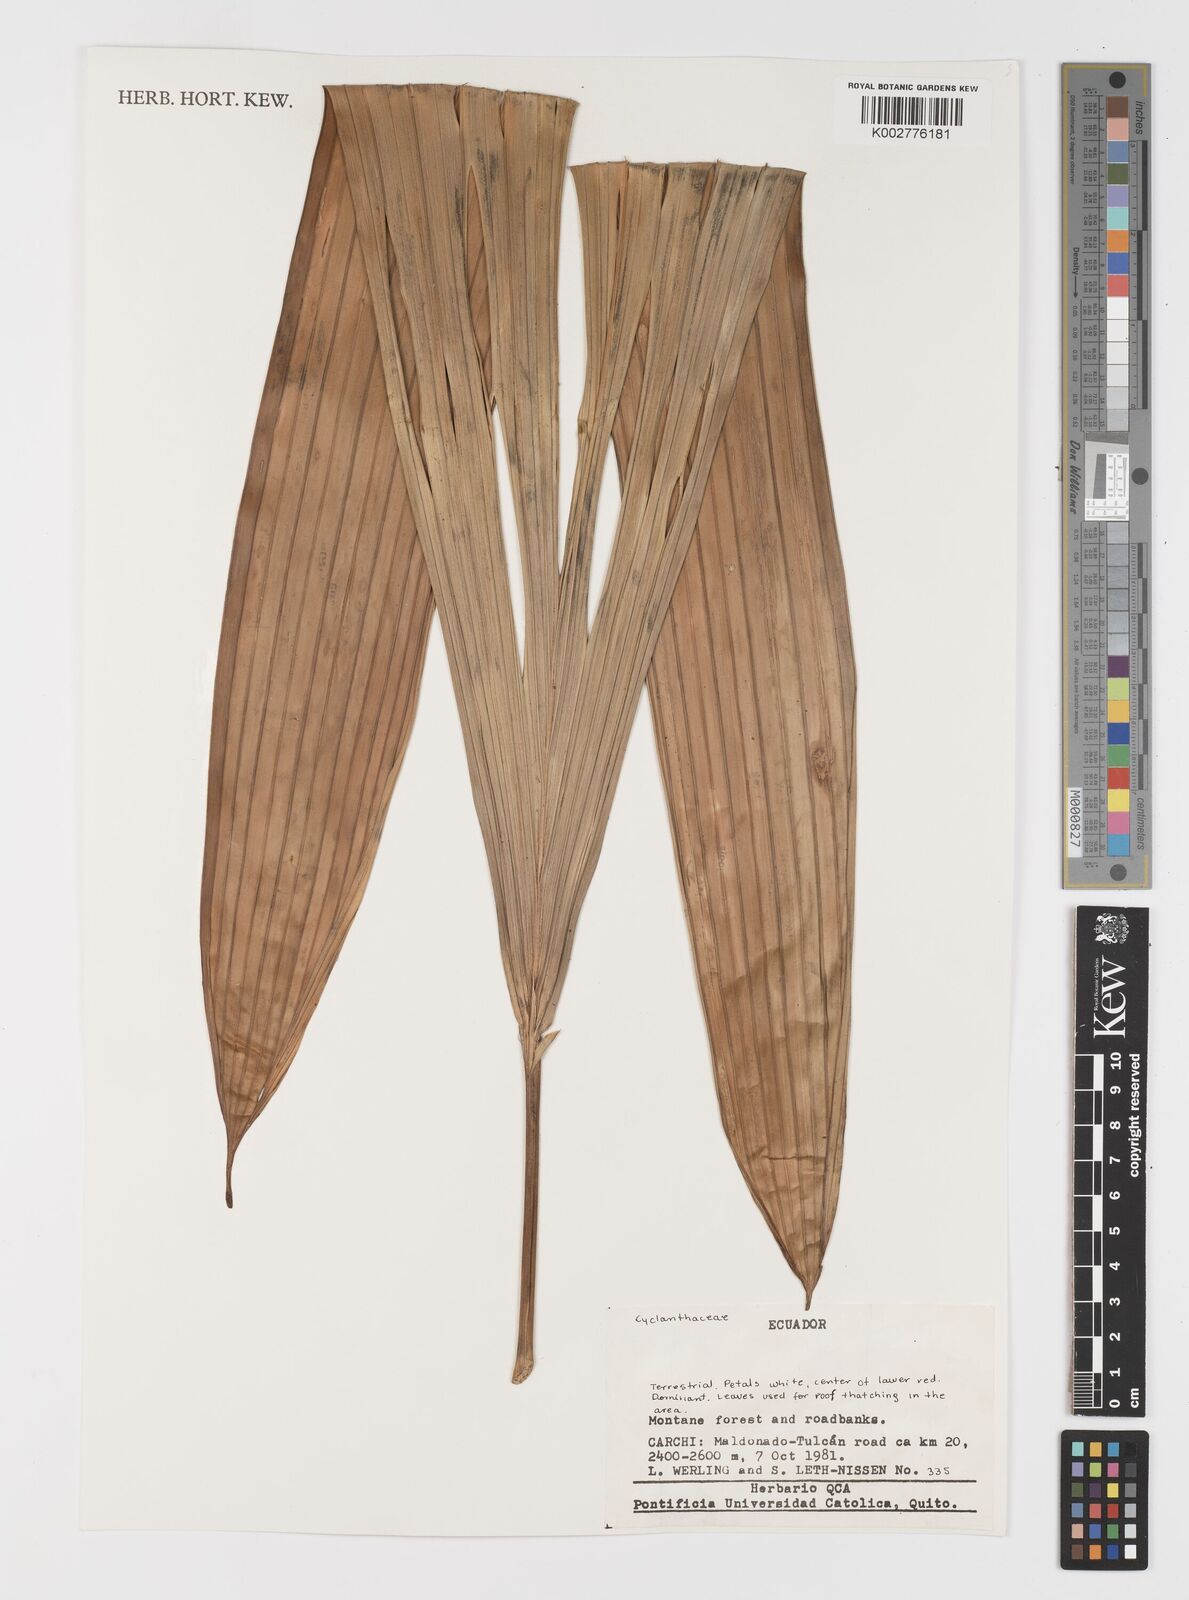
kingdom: Plantae
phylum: Tracheophyta
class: Liliopsida
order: Pandanales
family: Cyclanthaceae
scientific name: Cyclanthaceae
